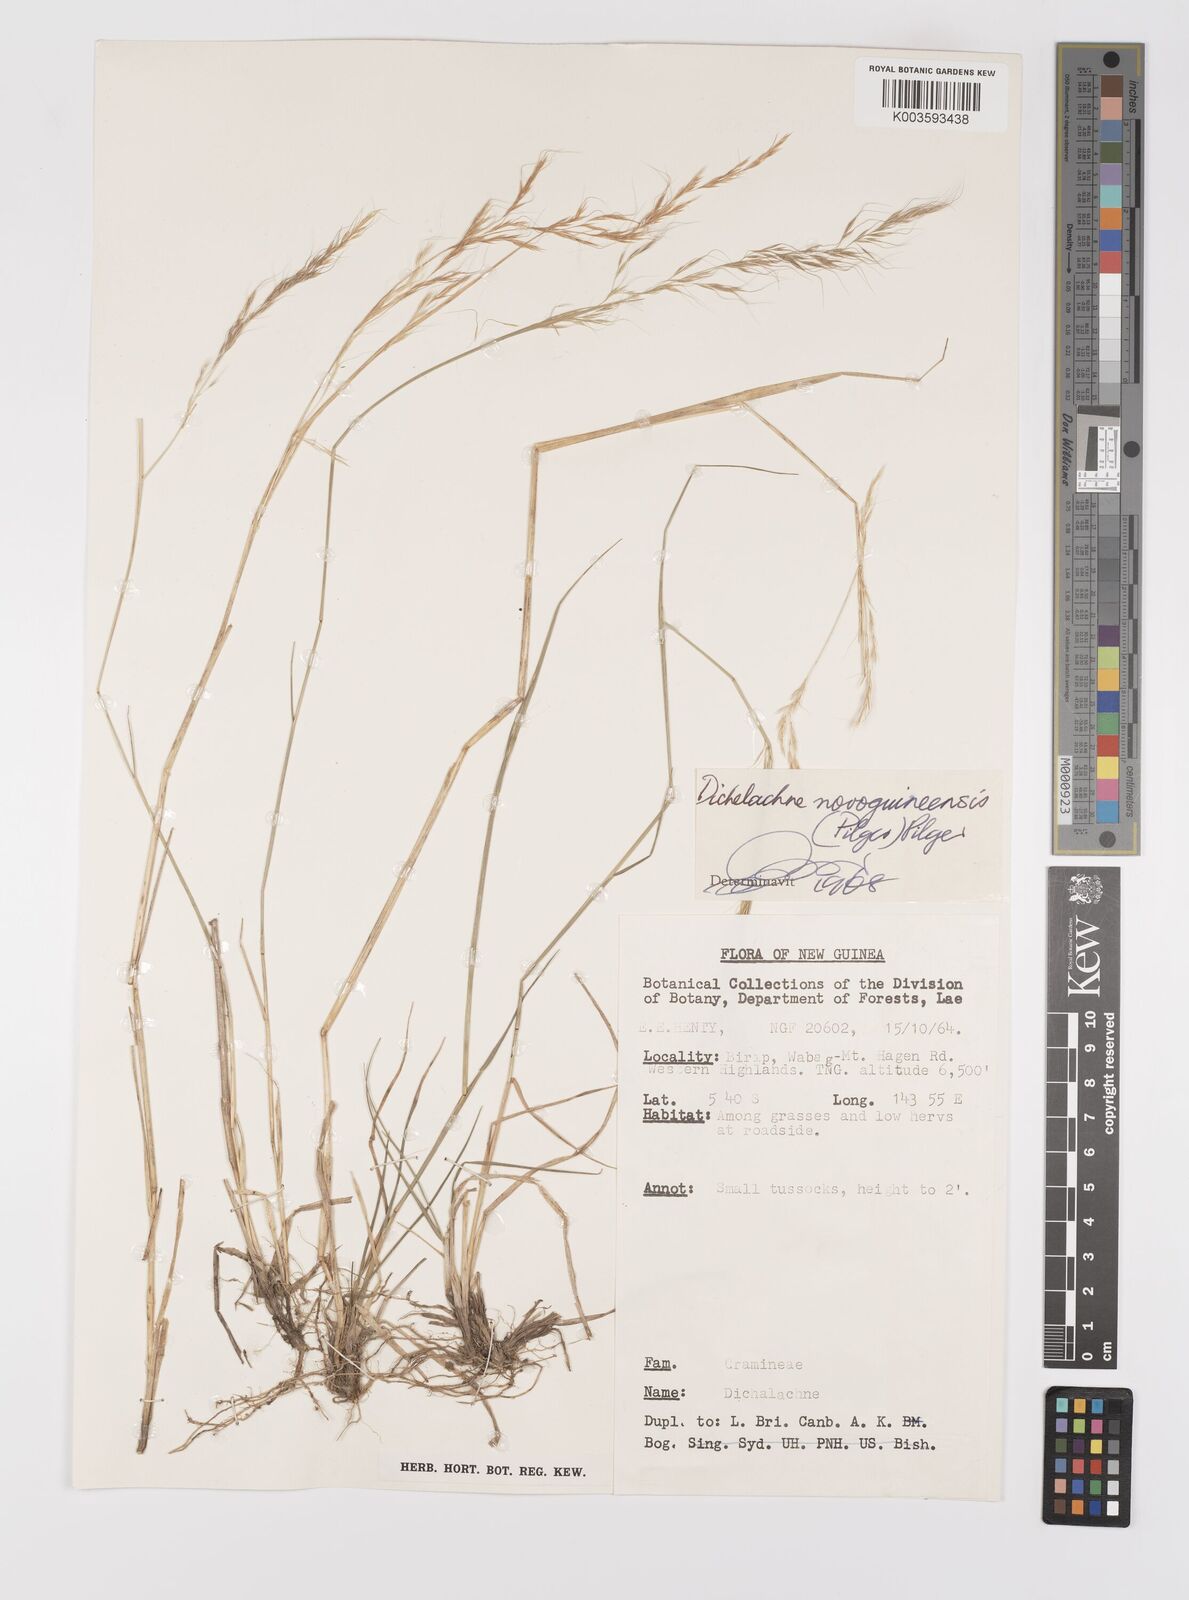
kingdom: Plantae
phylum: Tracheophyta
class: Liliopsida
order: Poales
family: Poaceae
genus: Dichelachne
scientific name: Dichelachne rara
